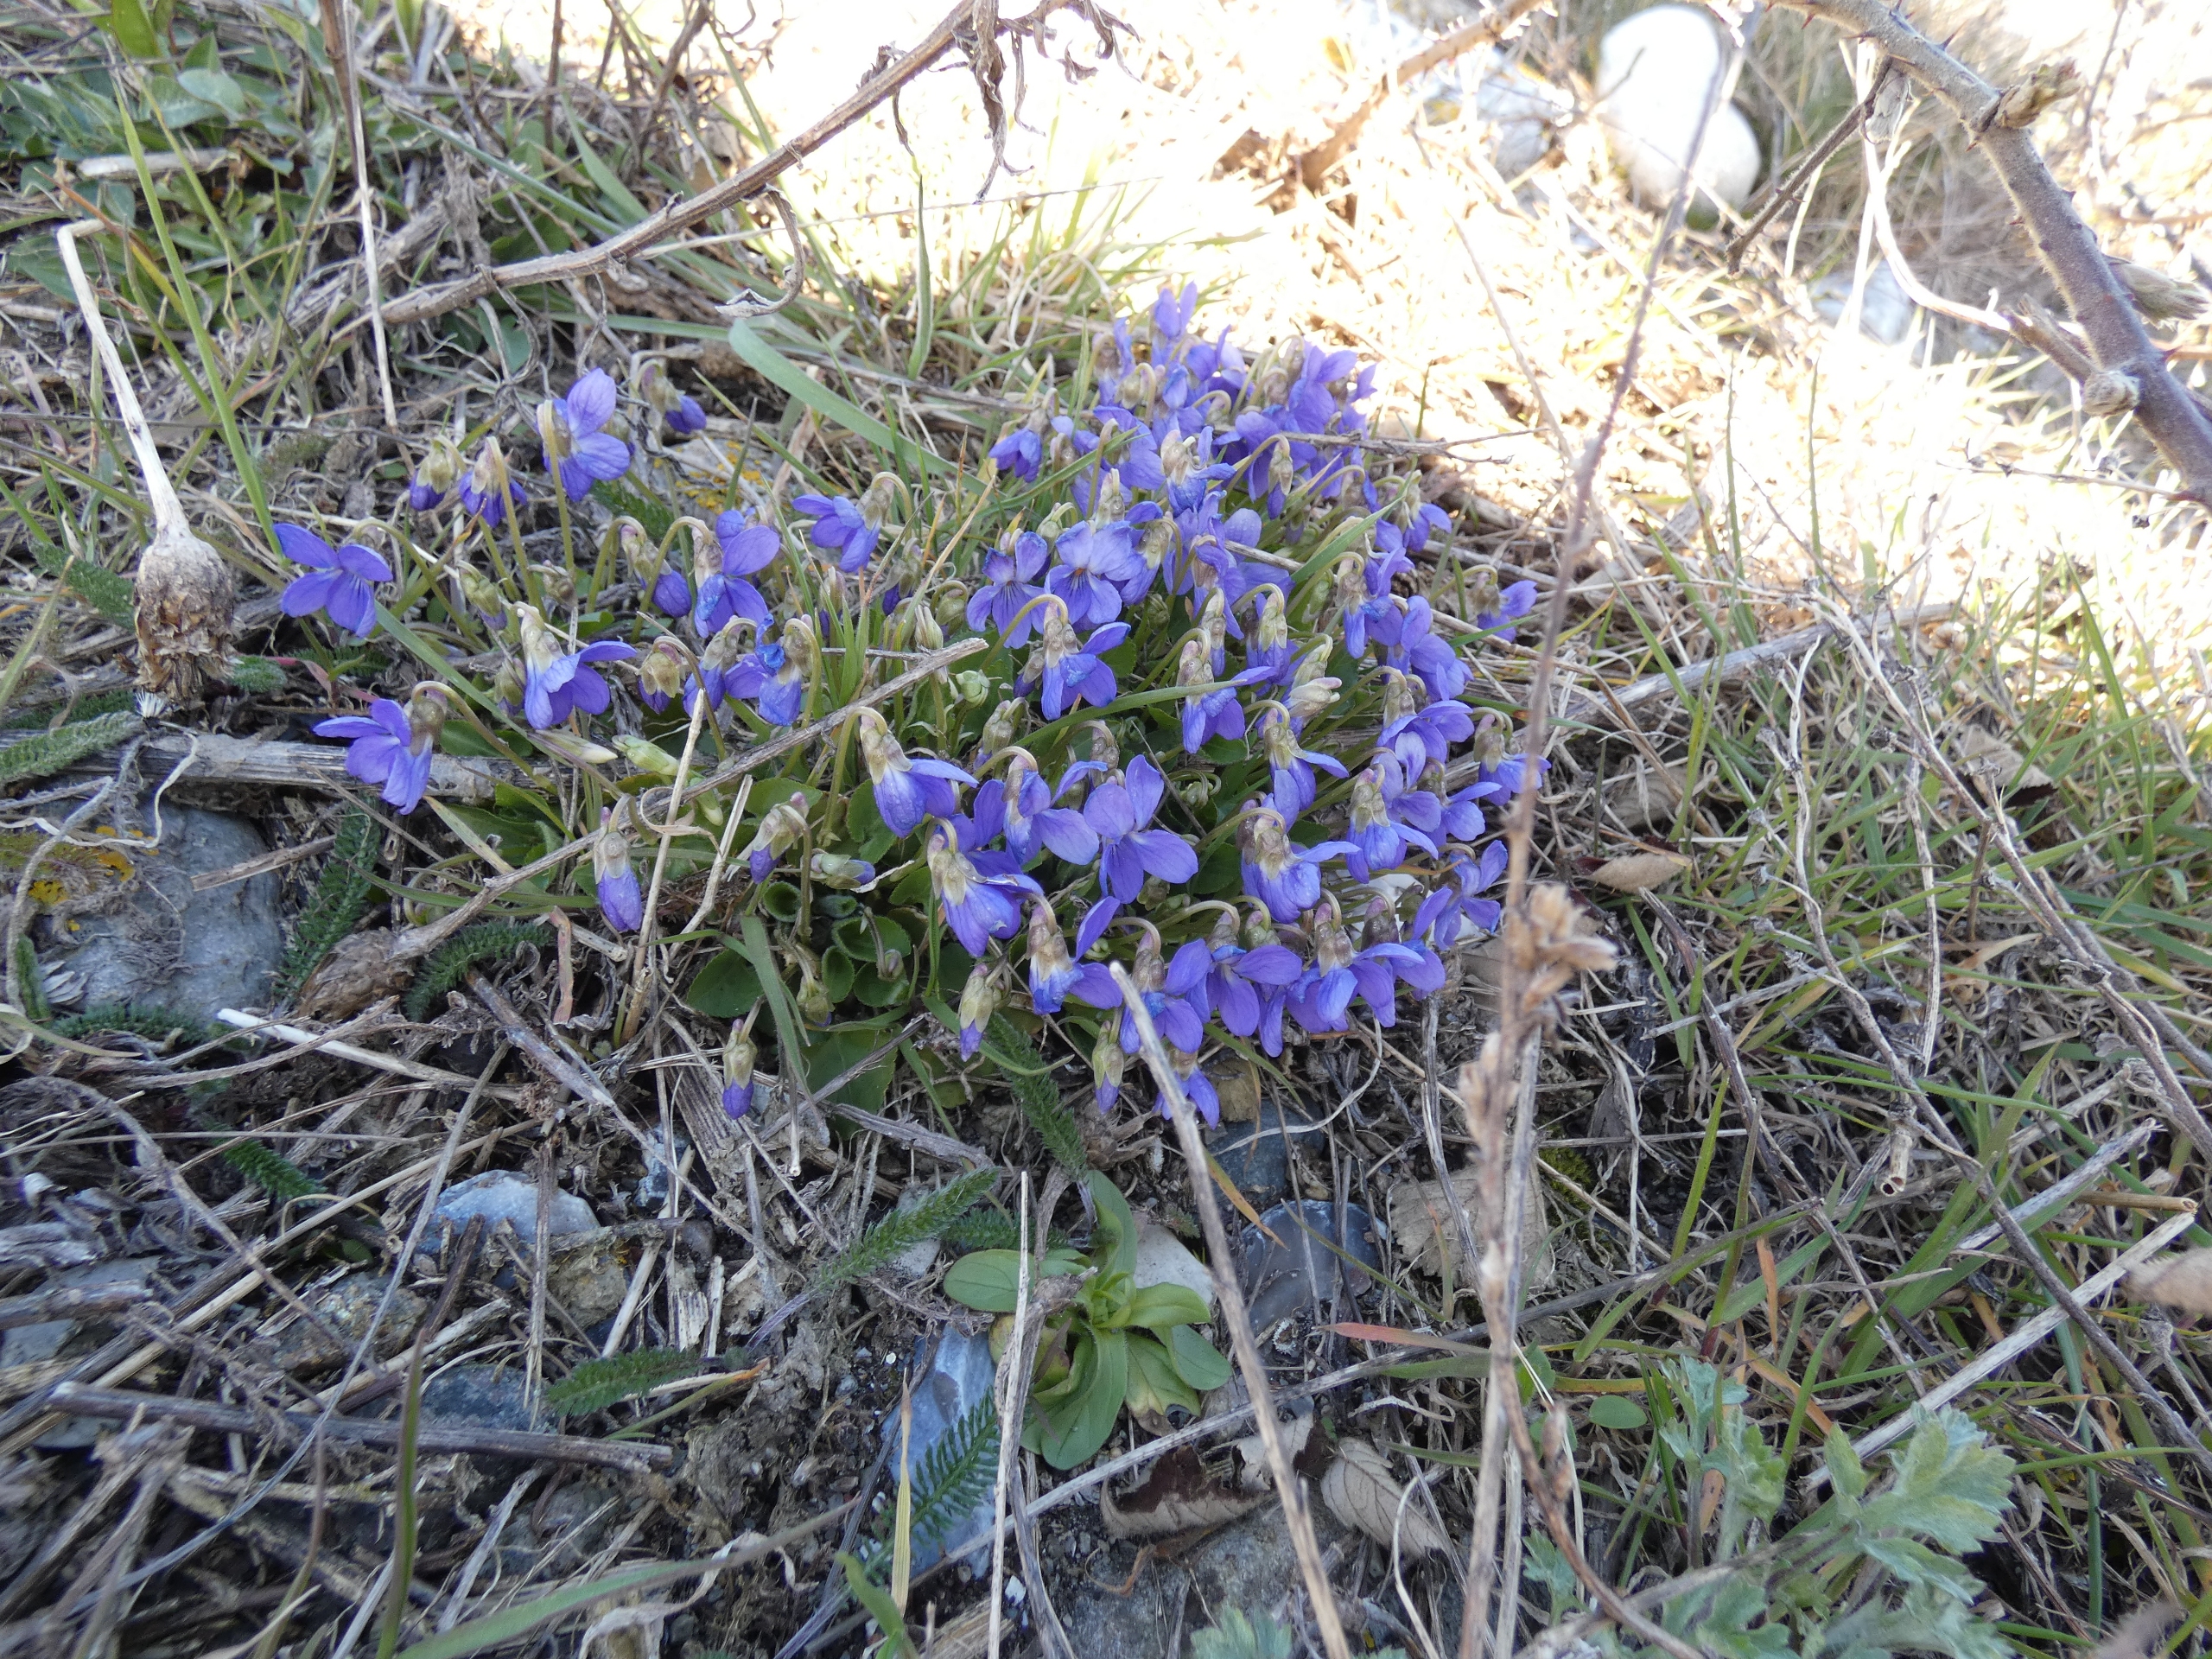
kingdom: Plantae
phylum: Tracheophyta
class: Magnoliopsida
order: Malpighiales
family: Violaceae
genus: Viola
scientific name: Viola
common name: Violslægten
